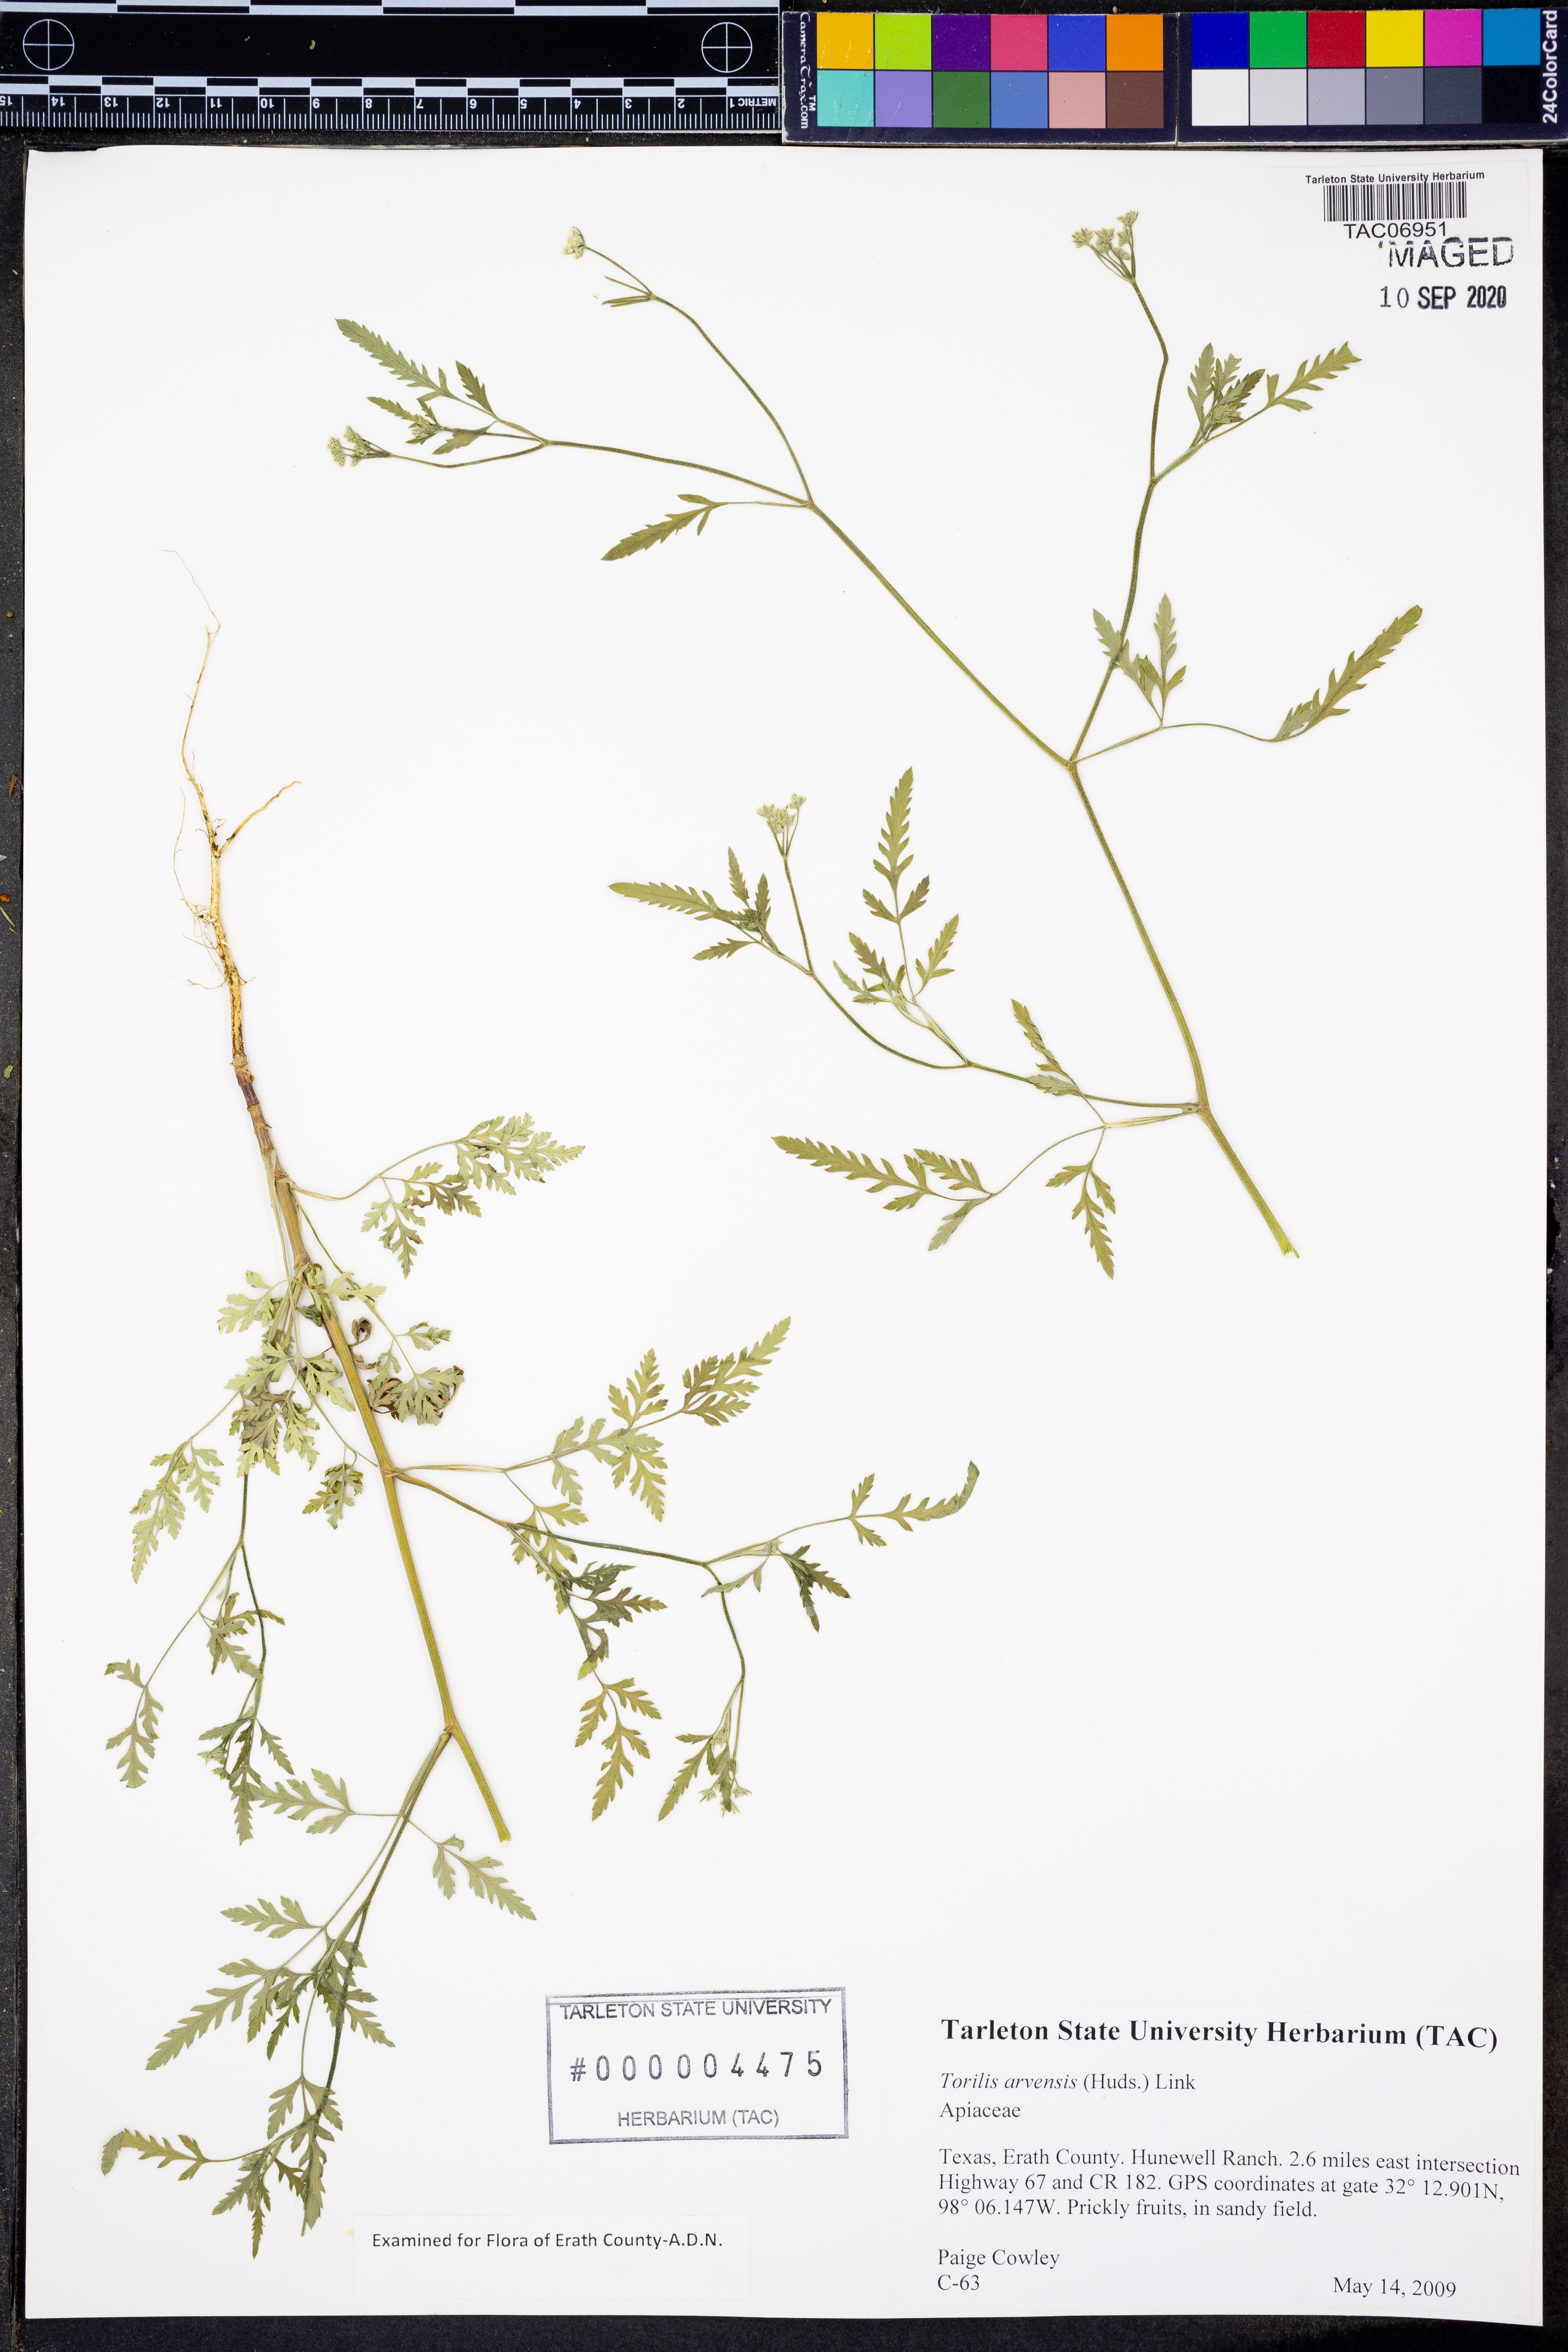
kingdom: Plantae
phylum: Tracheophyta
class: Magnoliopsida
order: Apiales
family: Apiaceae
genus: Torilis
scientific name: Torilis arvensis
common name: Spreading hedge-parsley
